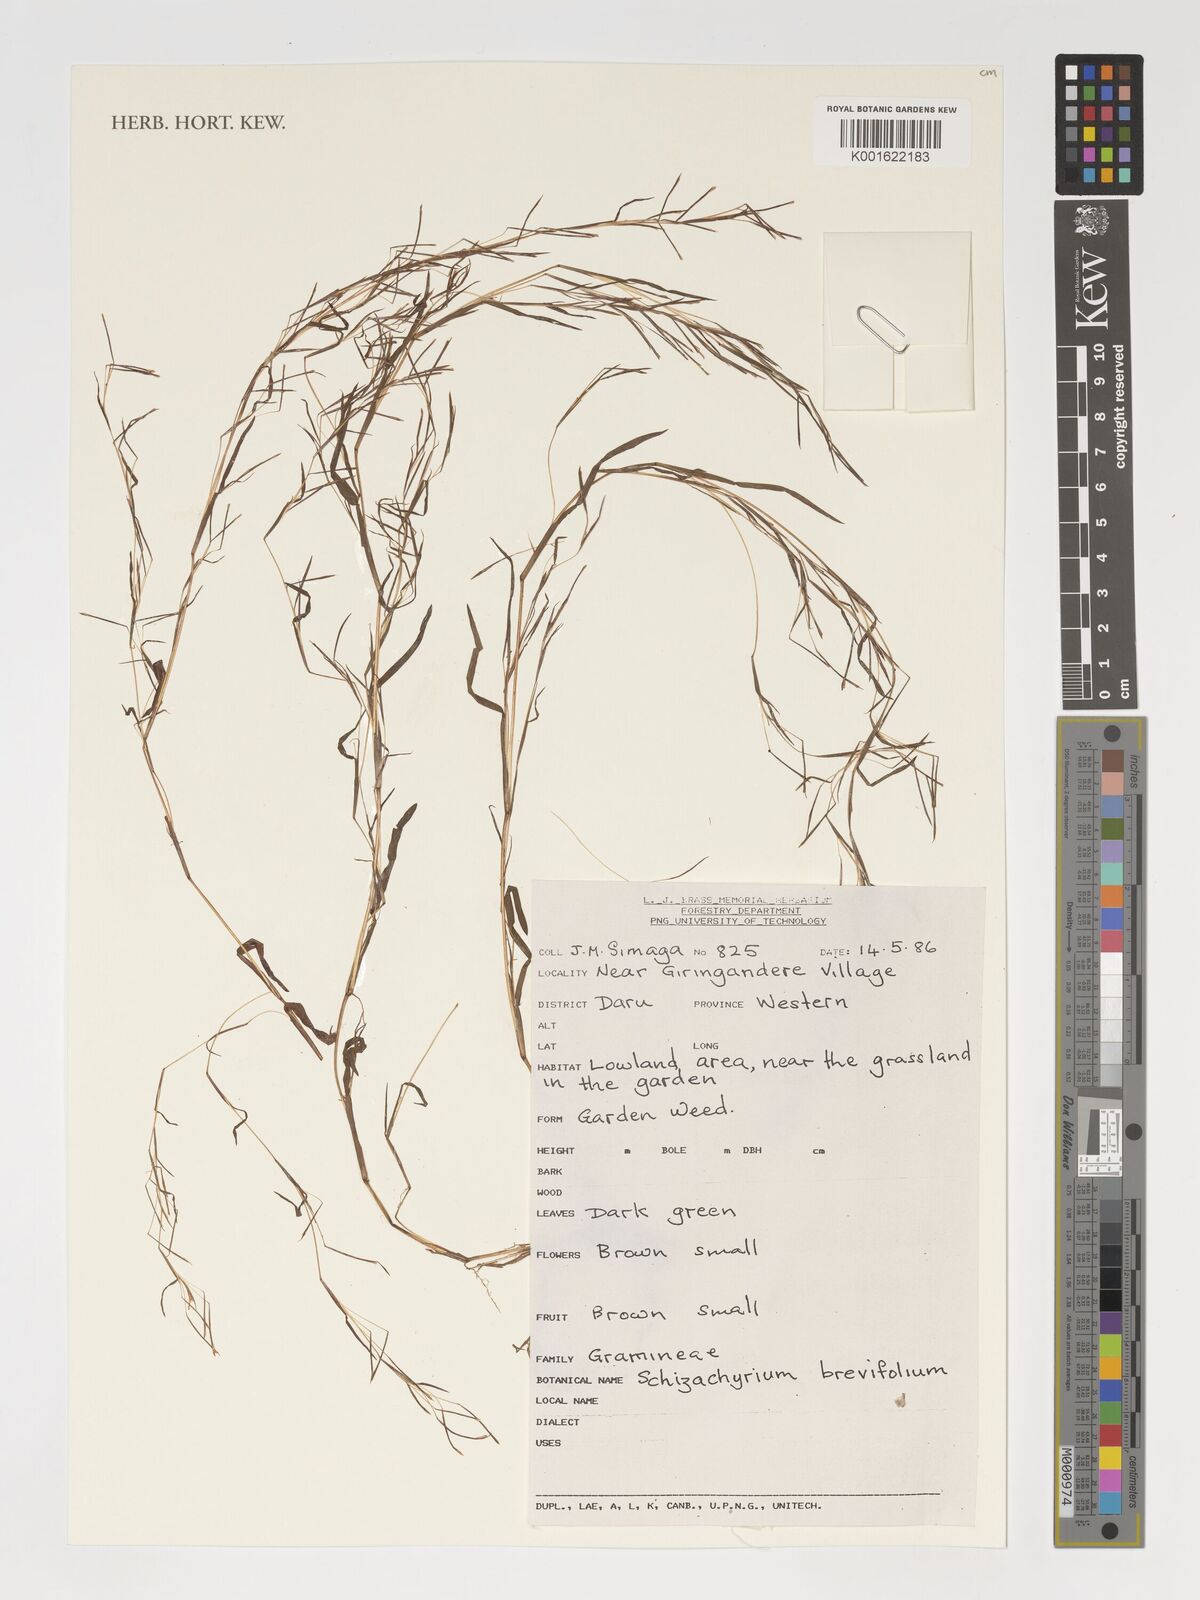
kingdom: Plantae
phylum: Tracheophyta
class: Liliopsida
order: Poales
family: Poaceae
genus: Schizachyrium
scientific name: Schizachyrium brevifolium
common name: Serillo dulce
